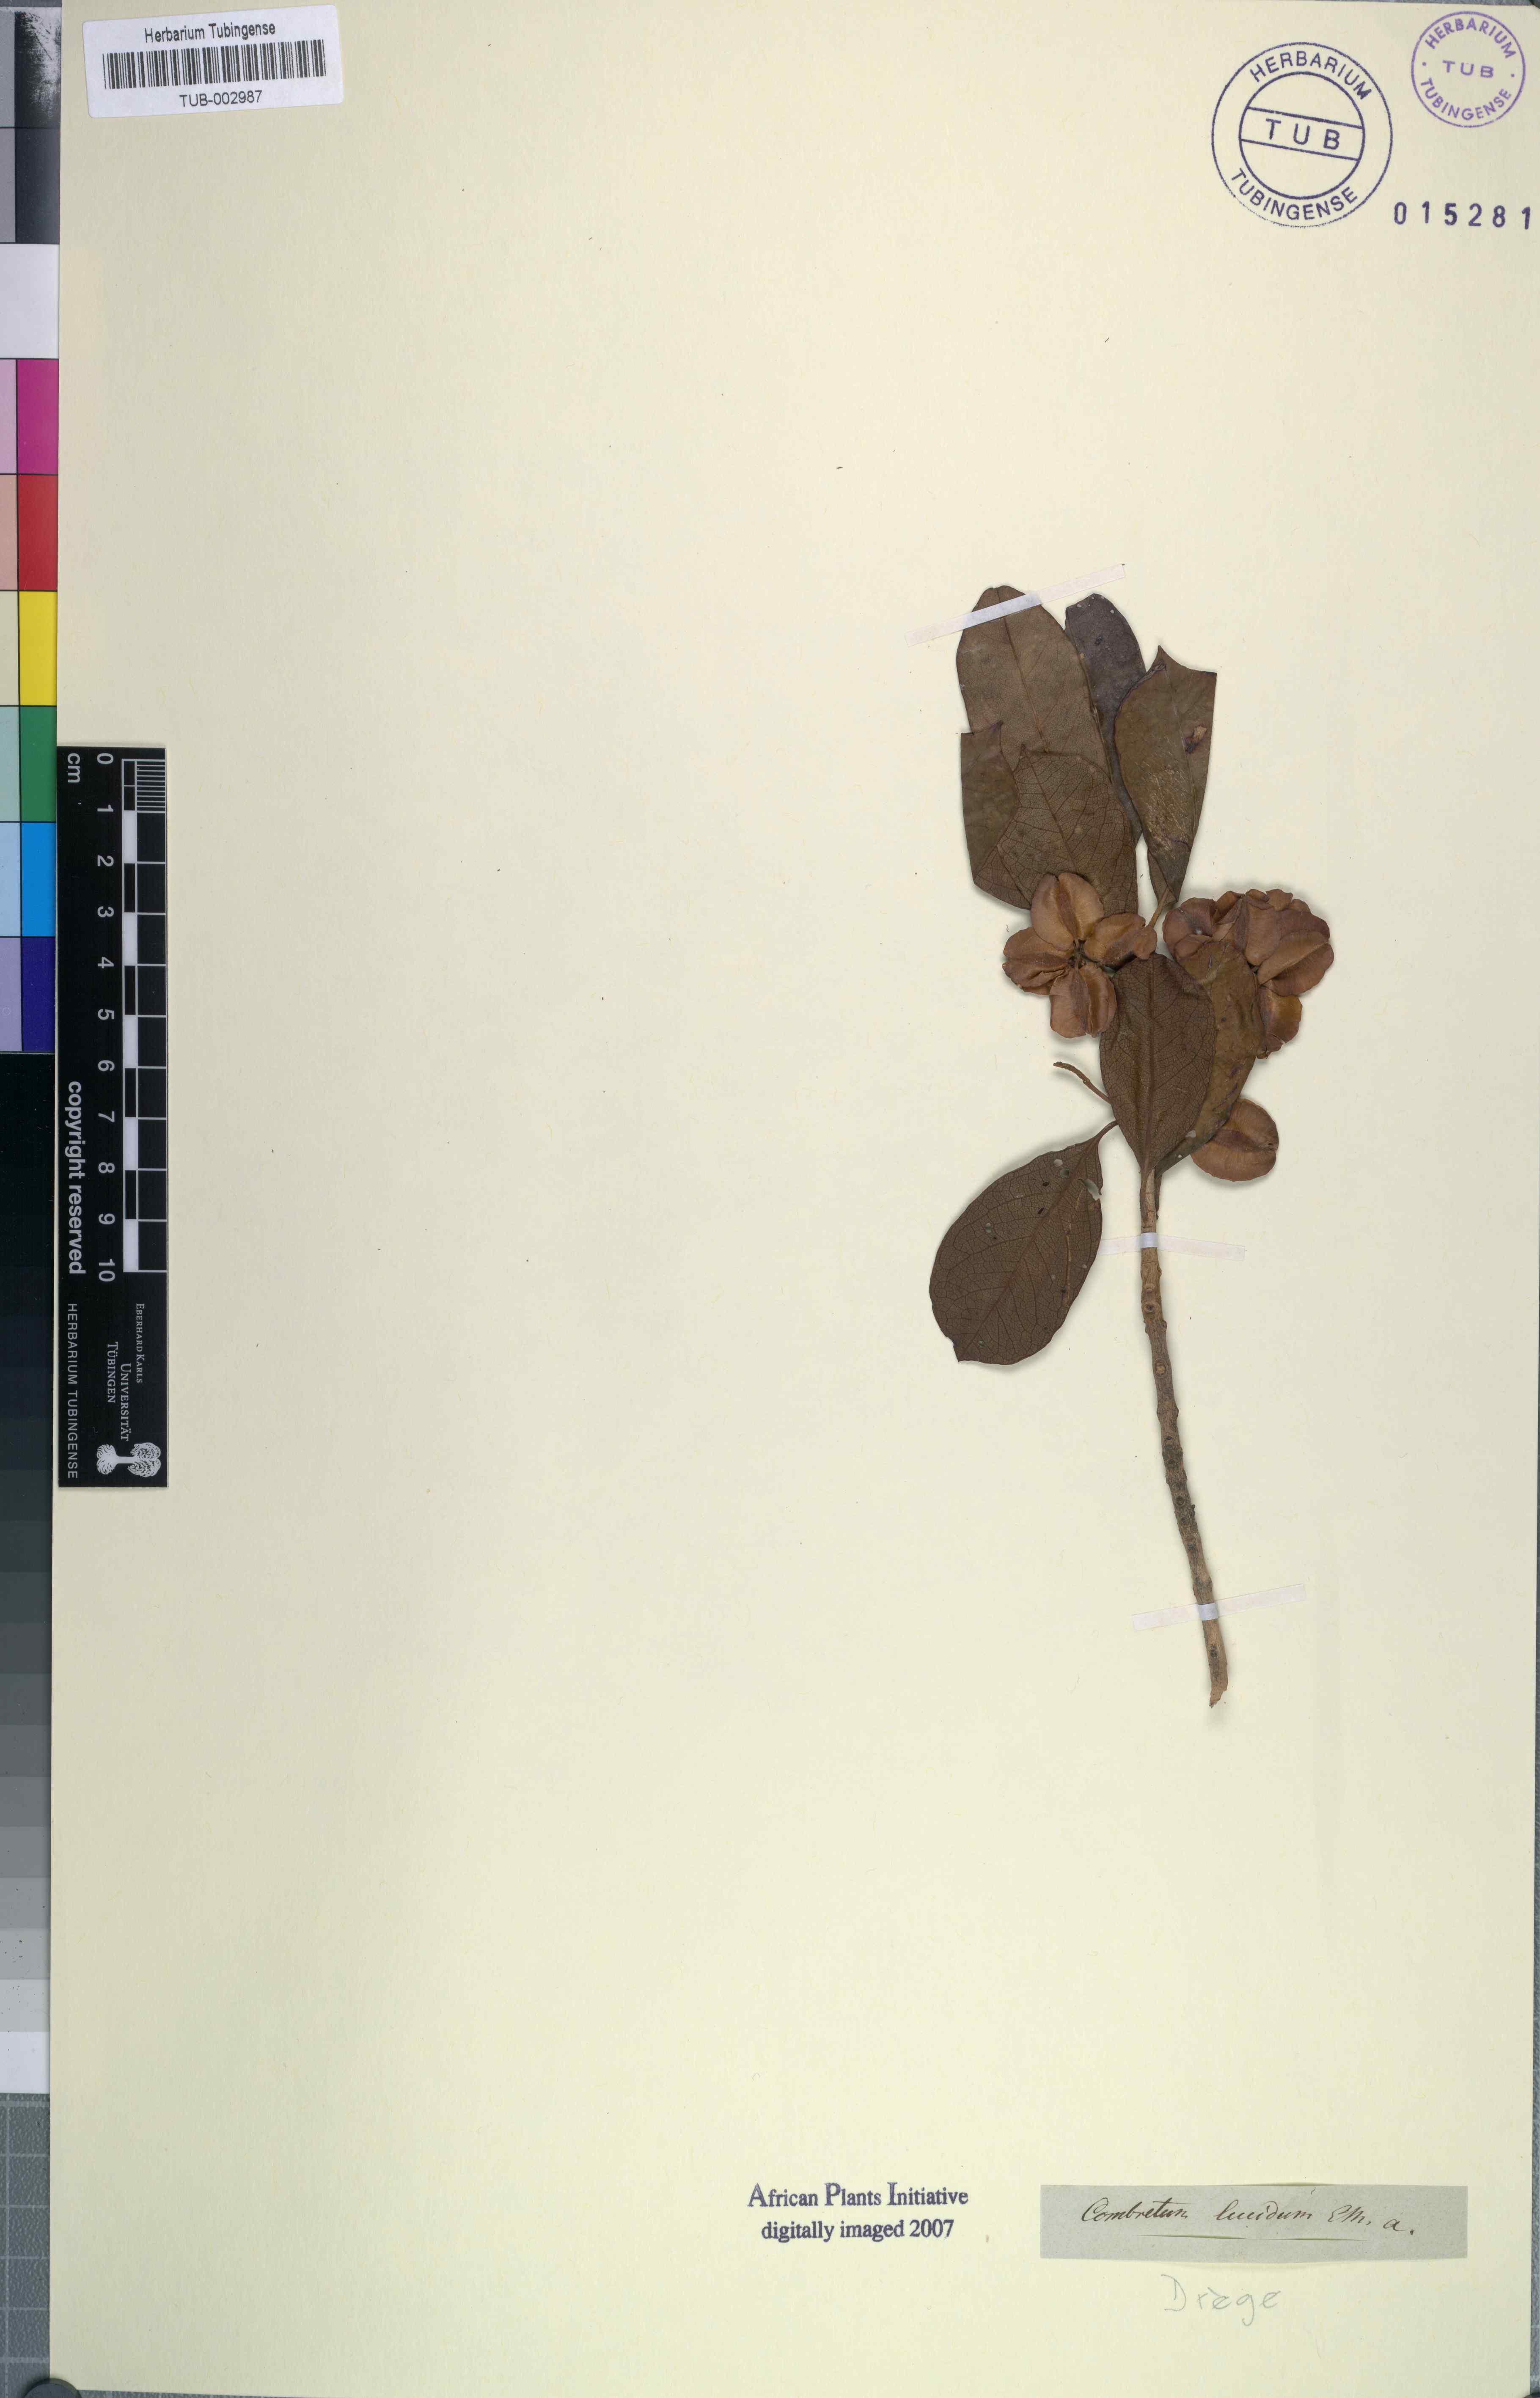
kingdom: Plantae
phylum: Tracheophyta
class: Magnoliopsida
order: Myrtales
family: Combretaceae
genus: Combretum
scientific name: Combretum kraussii
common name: Forest bushwillow
